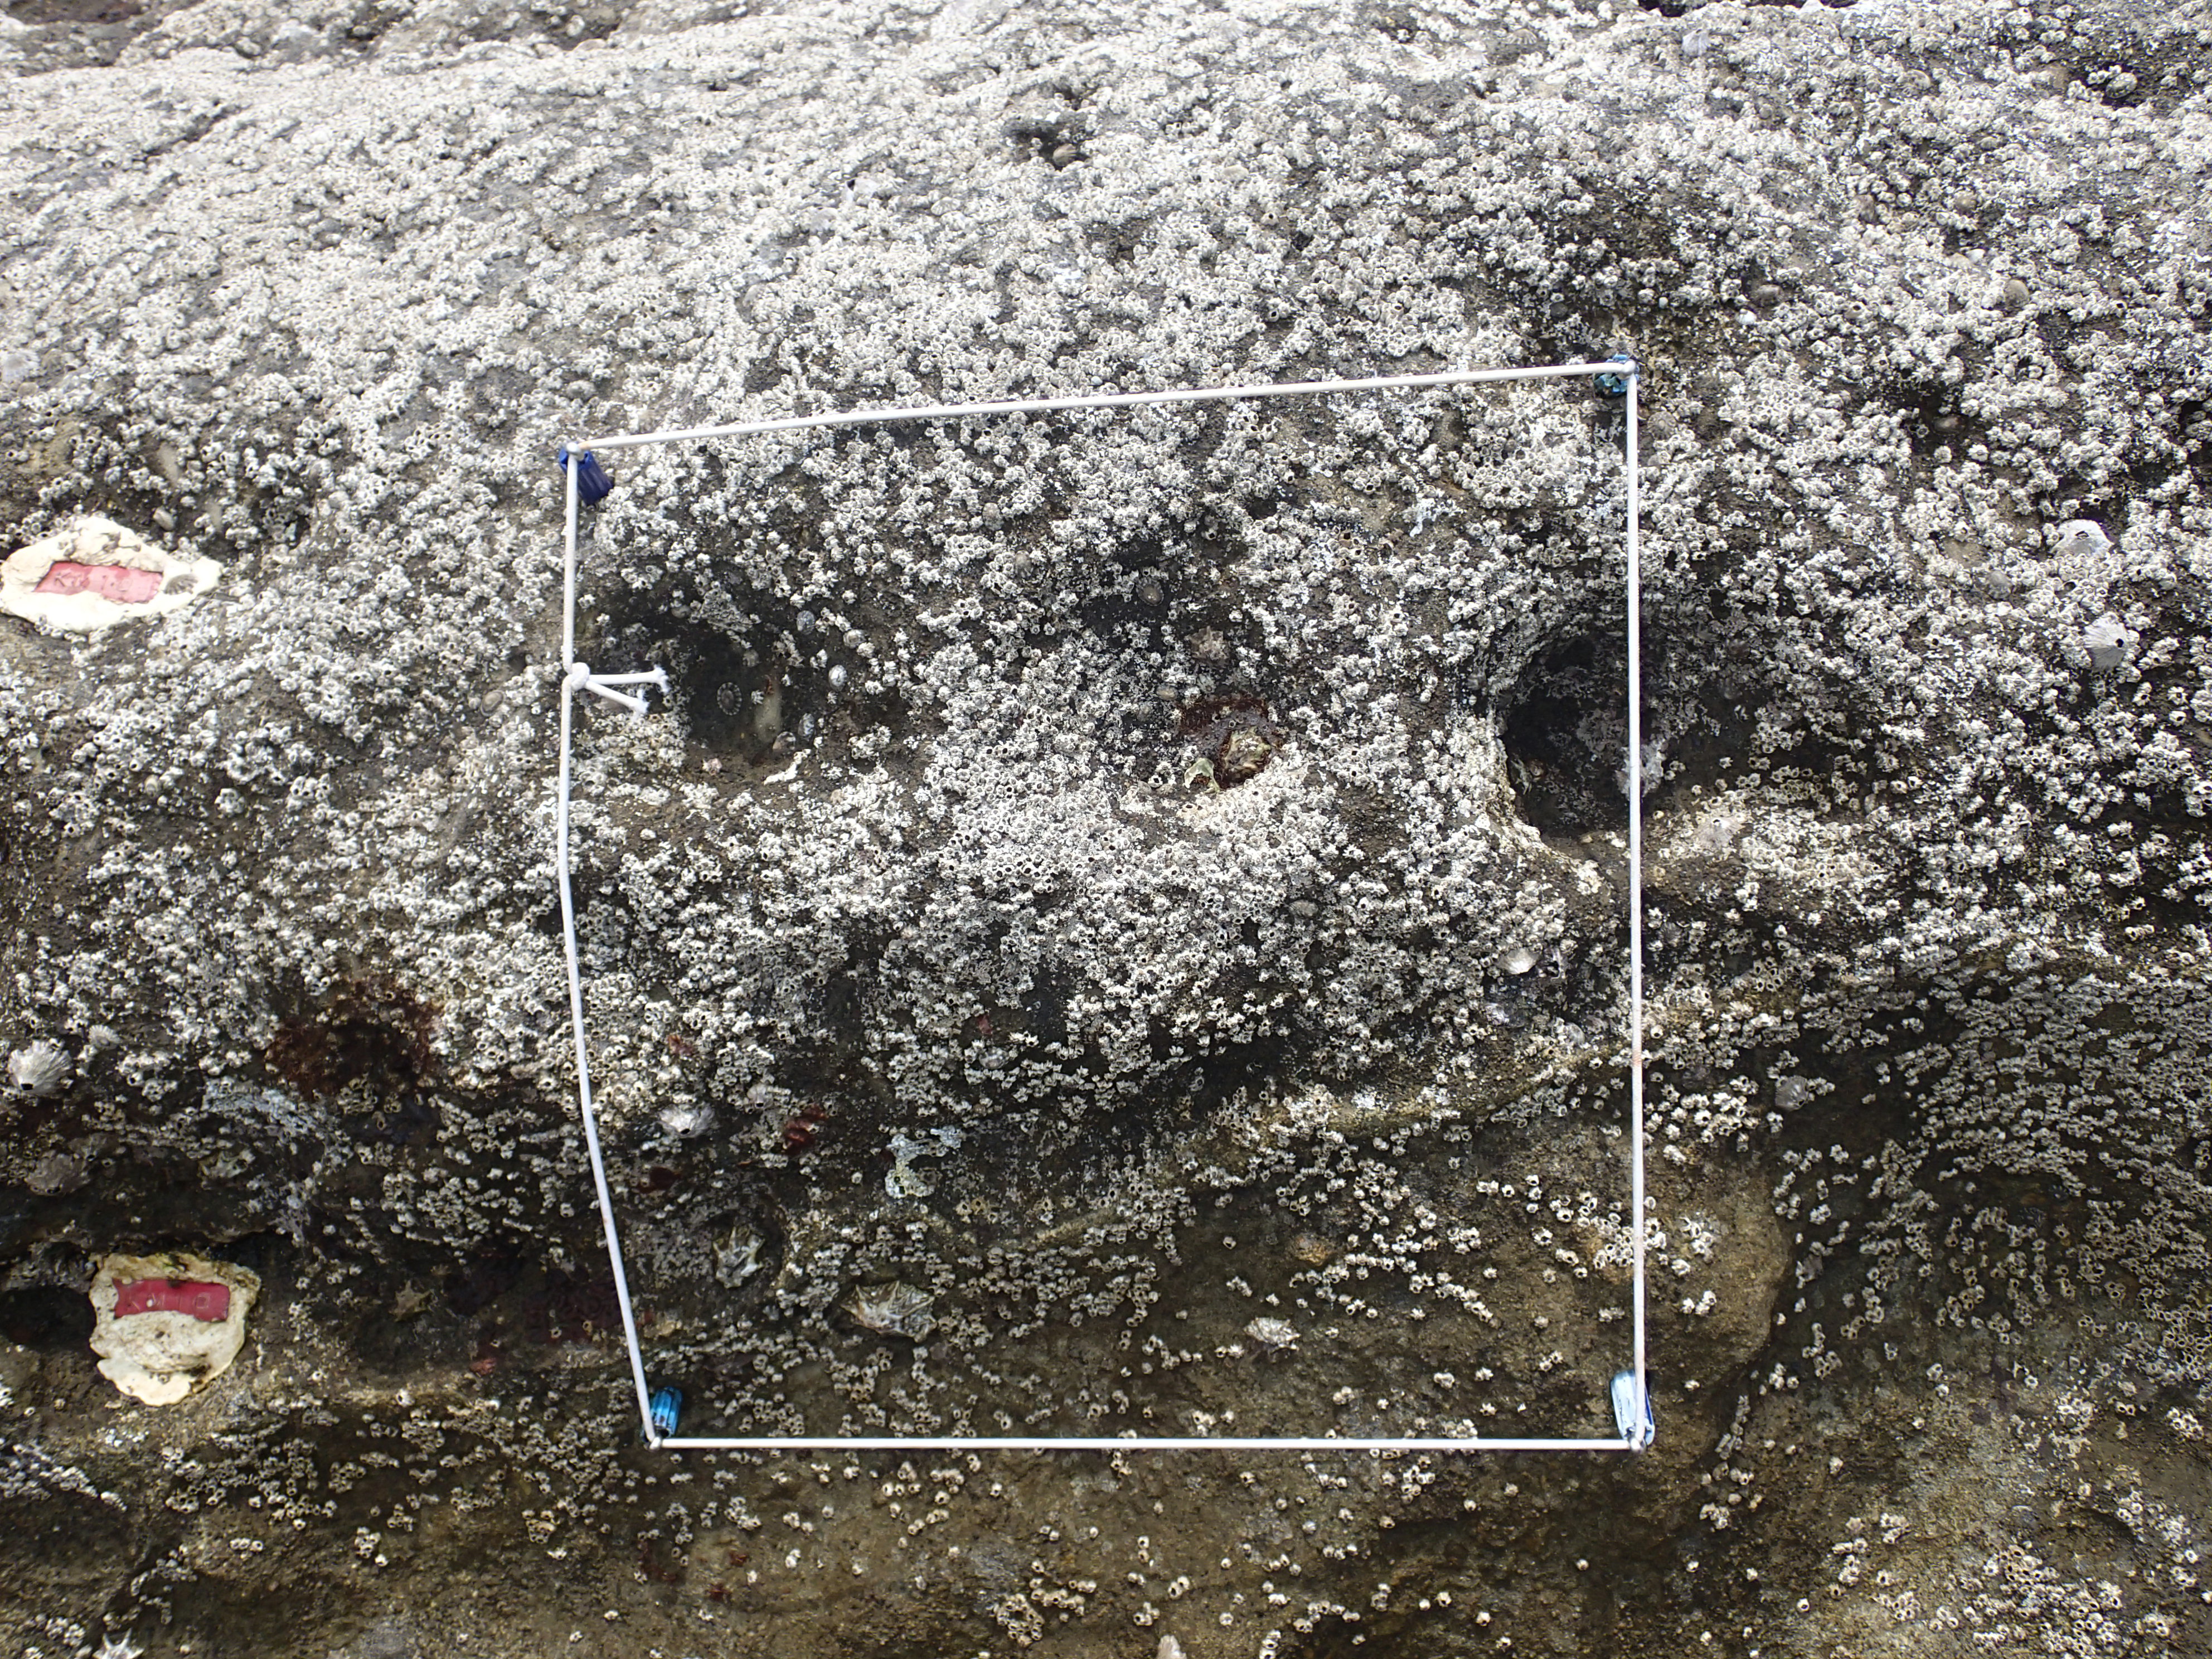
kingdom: Animalia
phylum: Arthropoda
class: Maxillopoda
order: Sessilia
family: Chthamalidae
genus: Chthamalus
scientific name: Chthamalus challengeri
